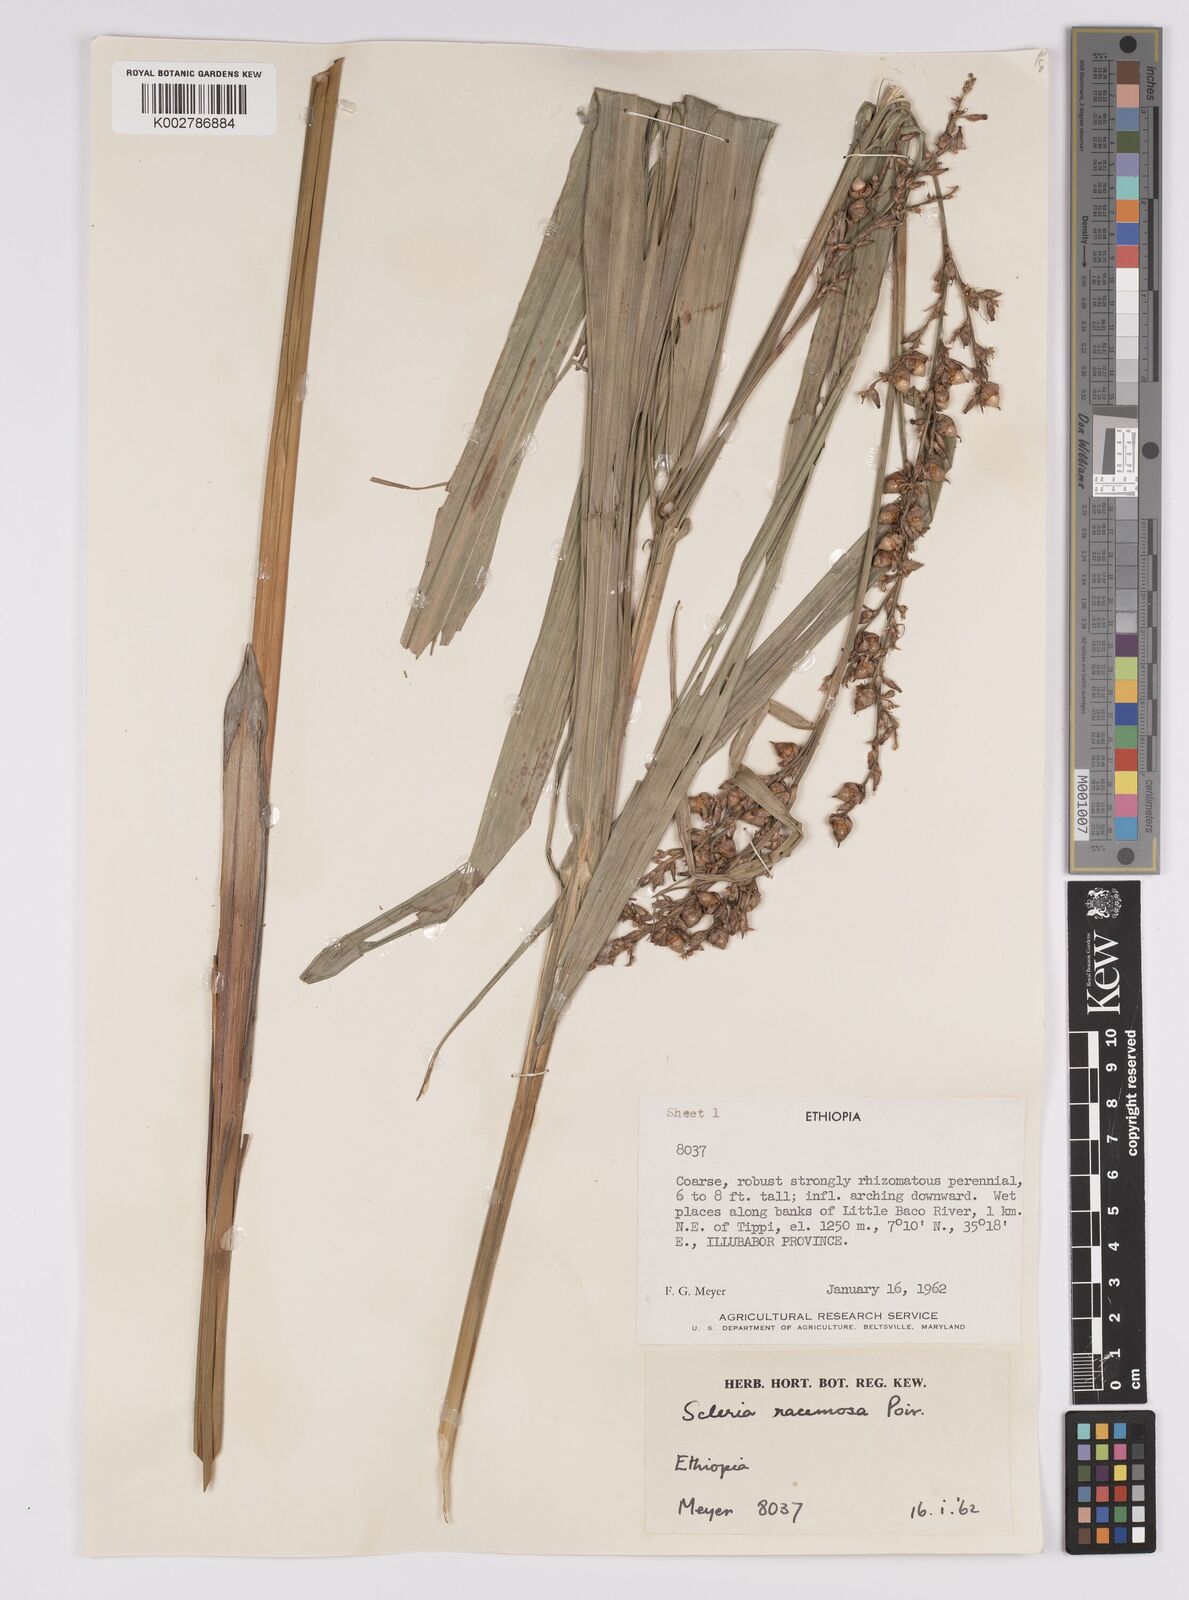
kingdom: Plantae
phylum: Tracheophyta
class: Liliopsida
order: Poales
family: Cyperaceae
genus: Scleria
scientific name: Scleria racemosa
